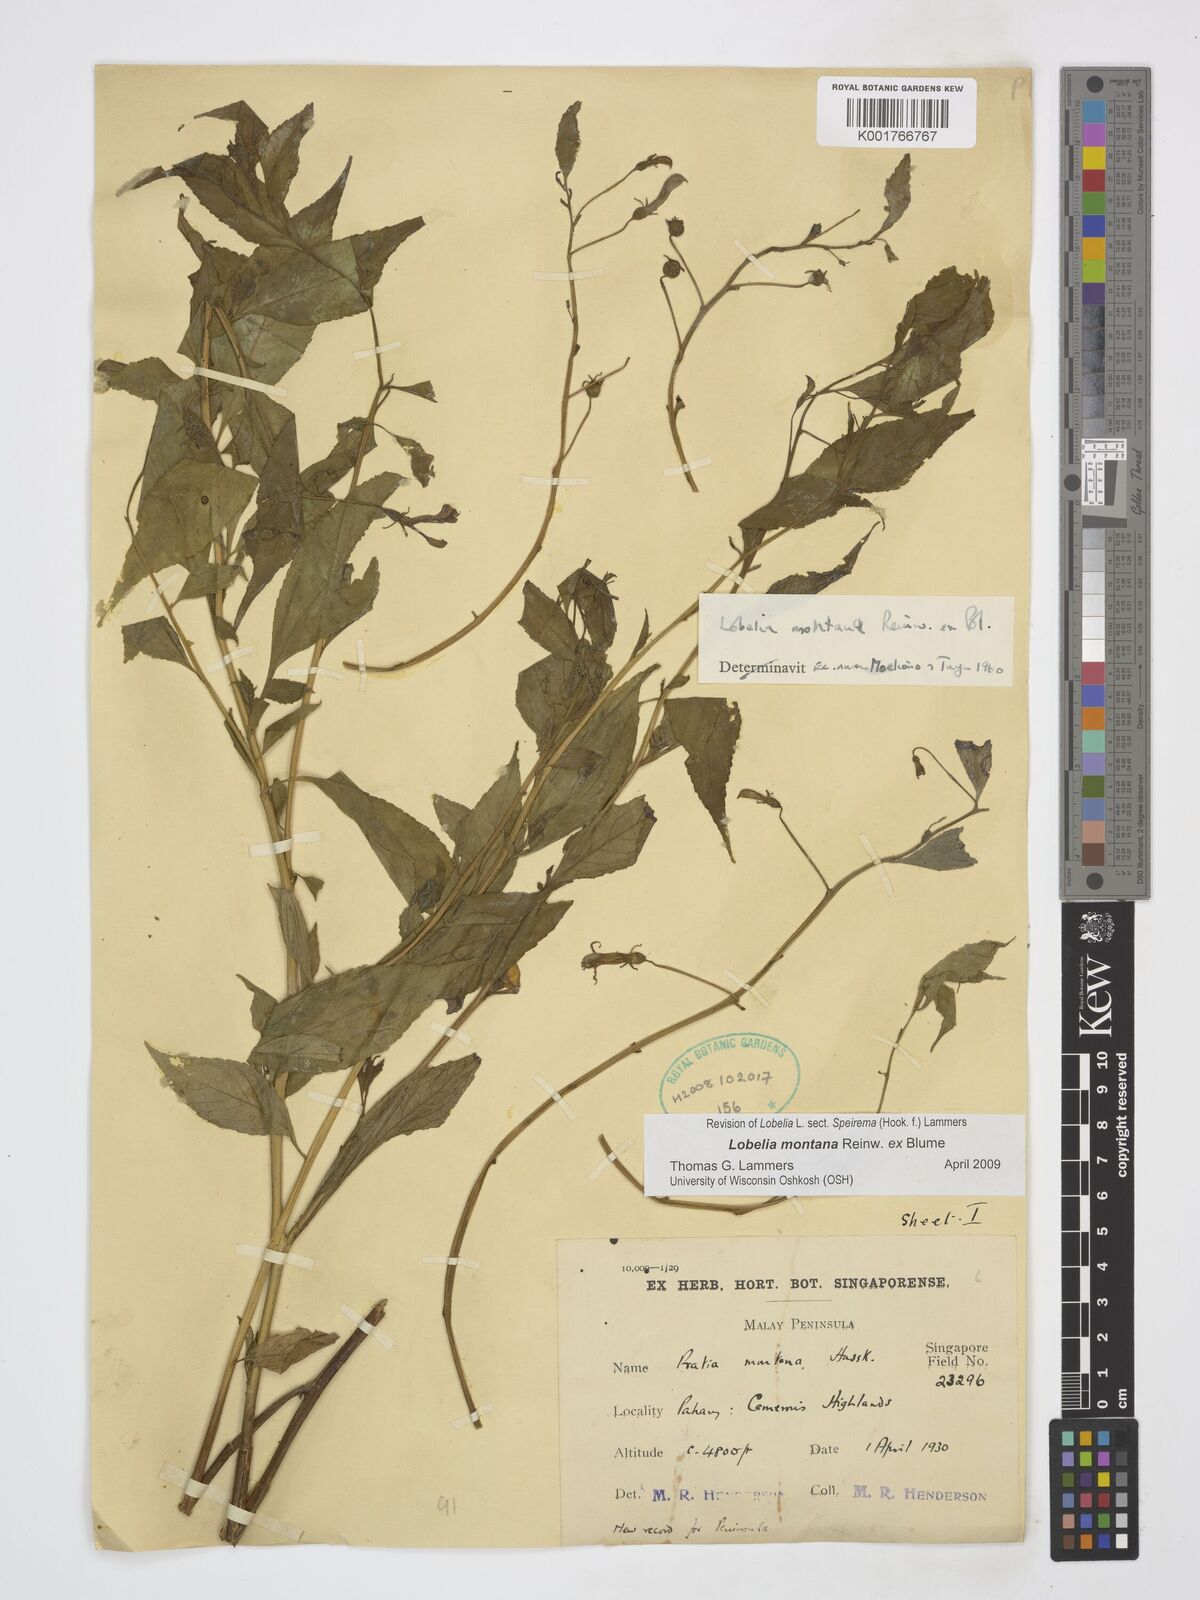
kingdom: Plantae
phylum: Tracheophyta
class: Magnoliopsida
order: Asterales
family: Campanulaceae
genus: Lobelia
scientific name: Lobelia montana
